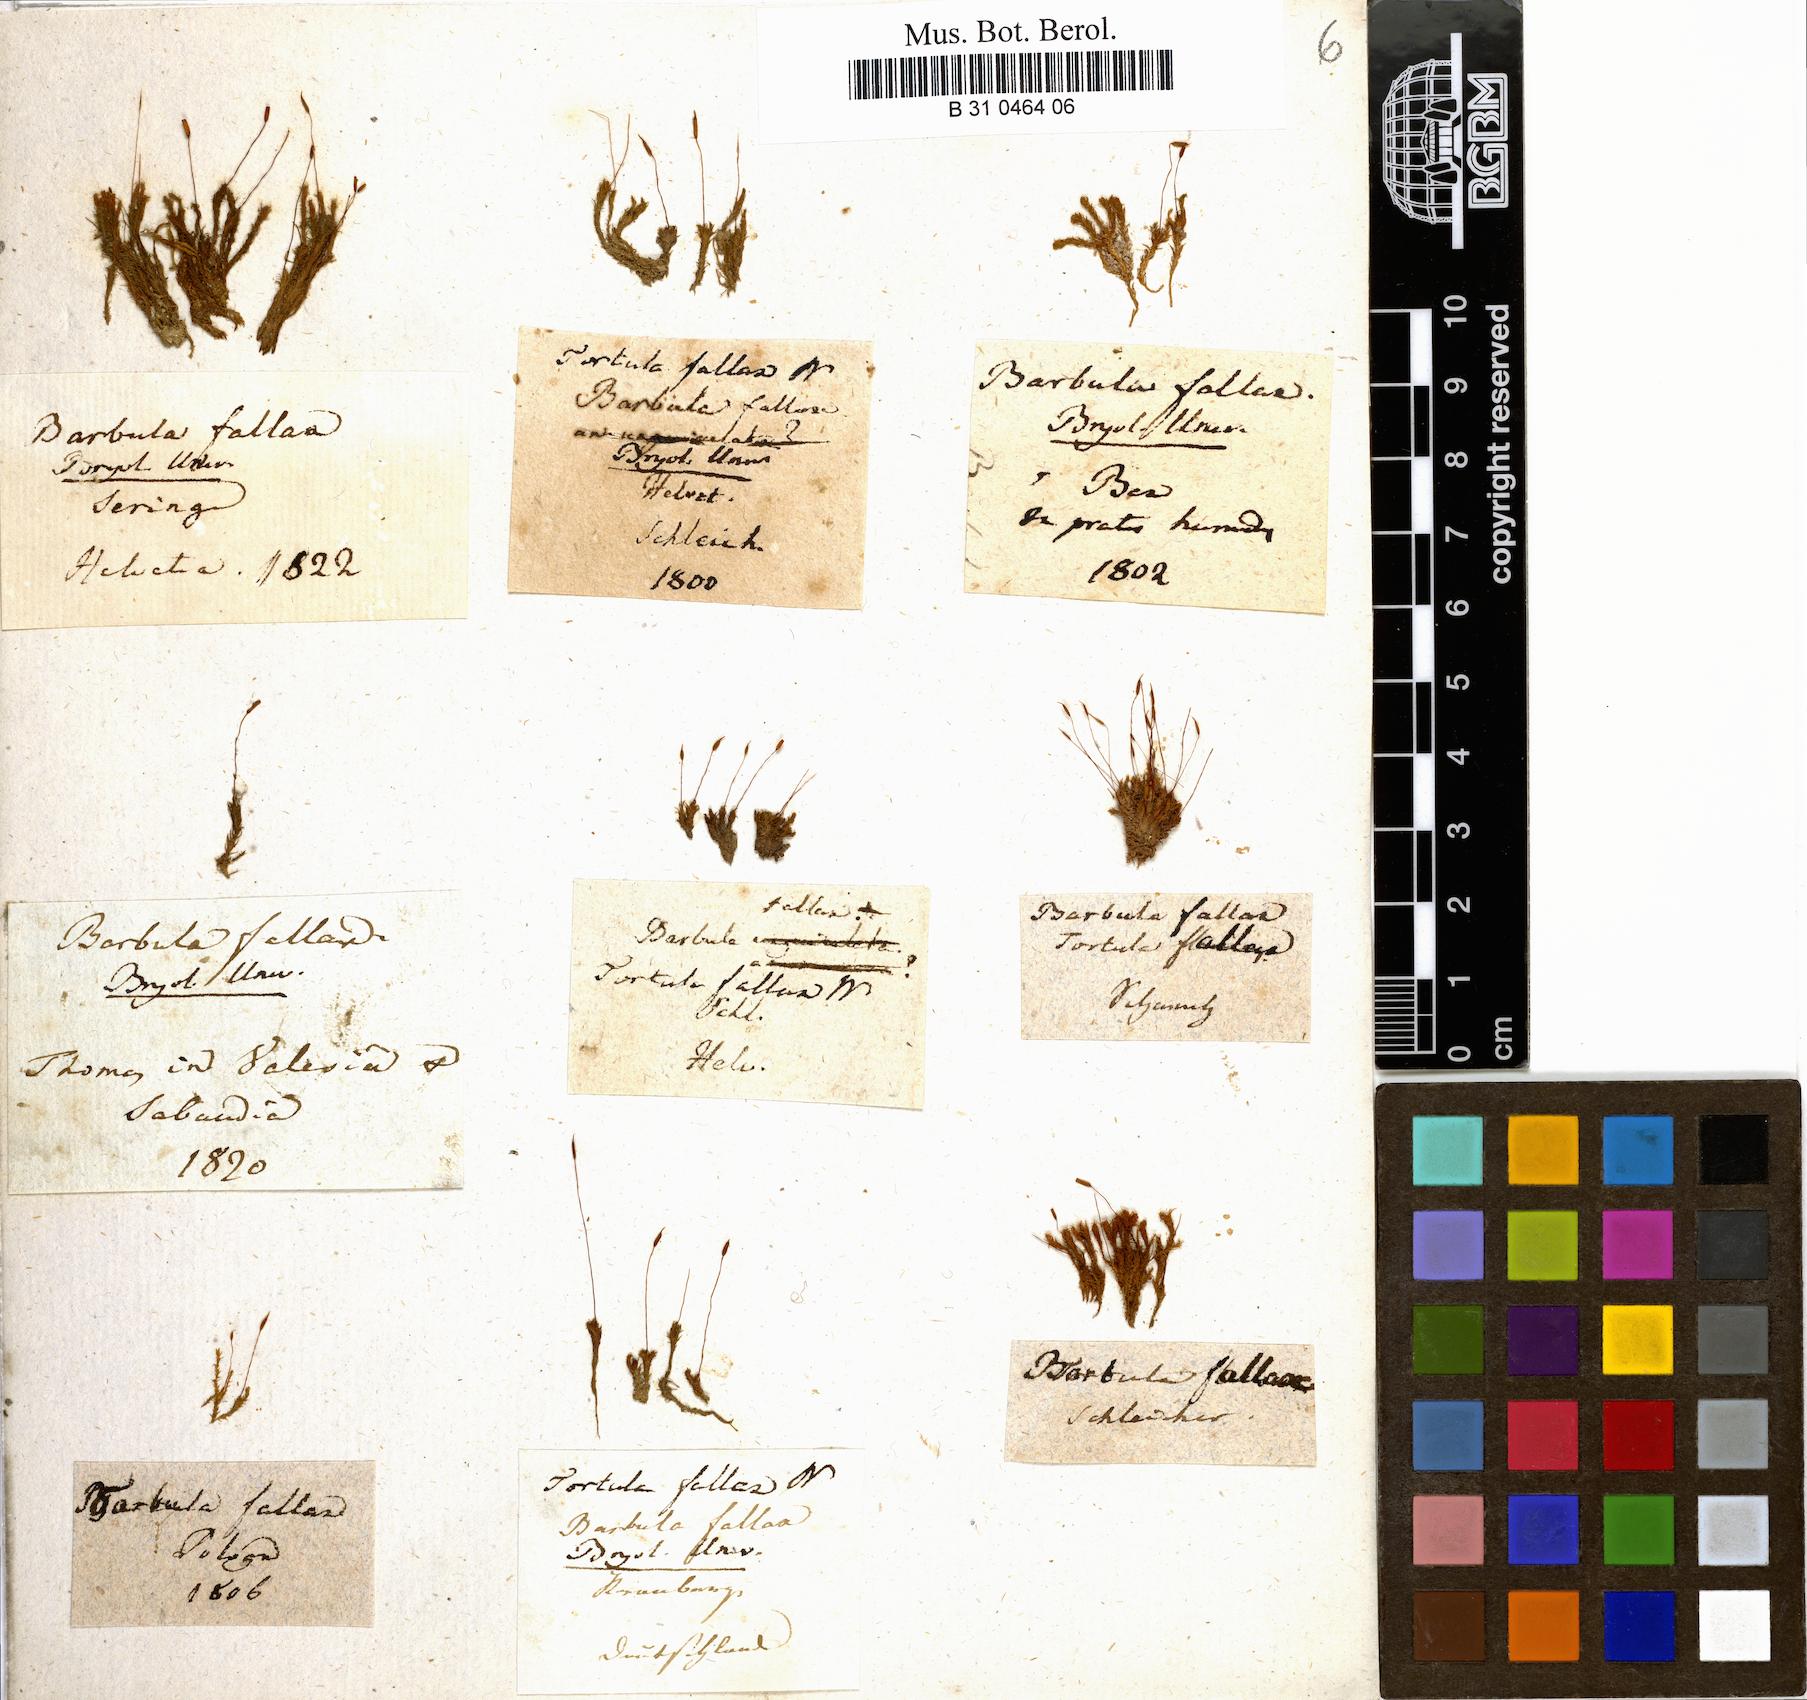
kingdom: Plantae
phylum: Bryophyta
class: Bryopsida
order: Pottiales
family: Pottiaceae
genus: Geheebia
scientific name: Geheebia fallax
